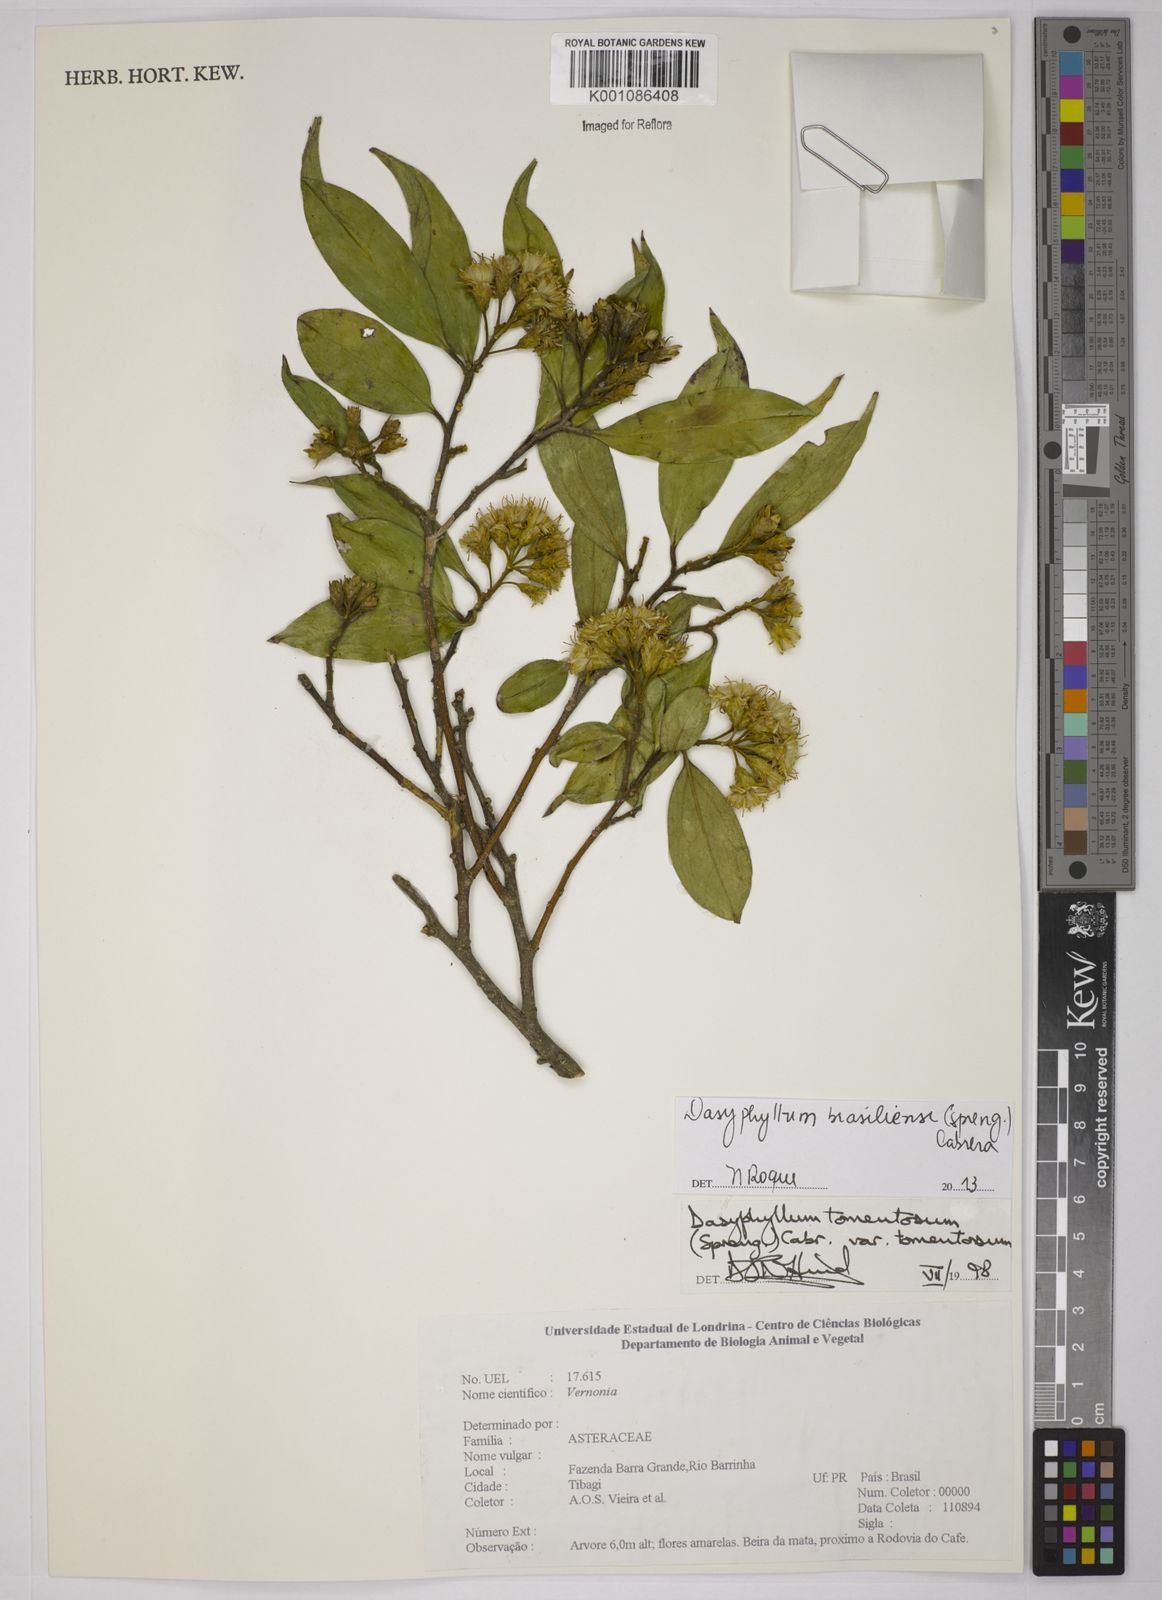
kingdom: Plantae
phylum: Tracheophyta
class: Magnoliopsida
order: Asterales
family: Asteraceae
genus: Dasyphyllum
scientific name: Dasyphyllum brasiliense
